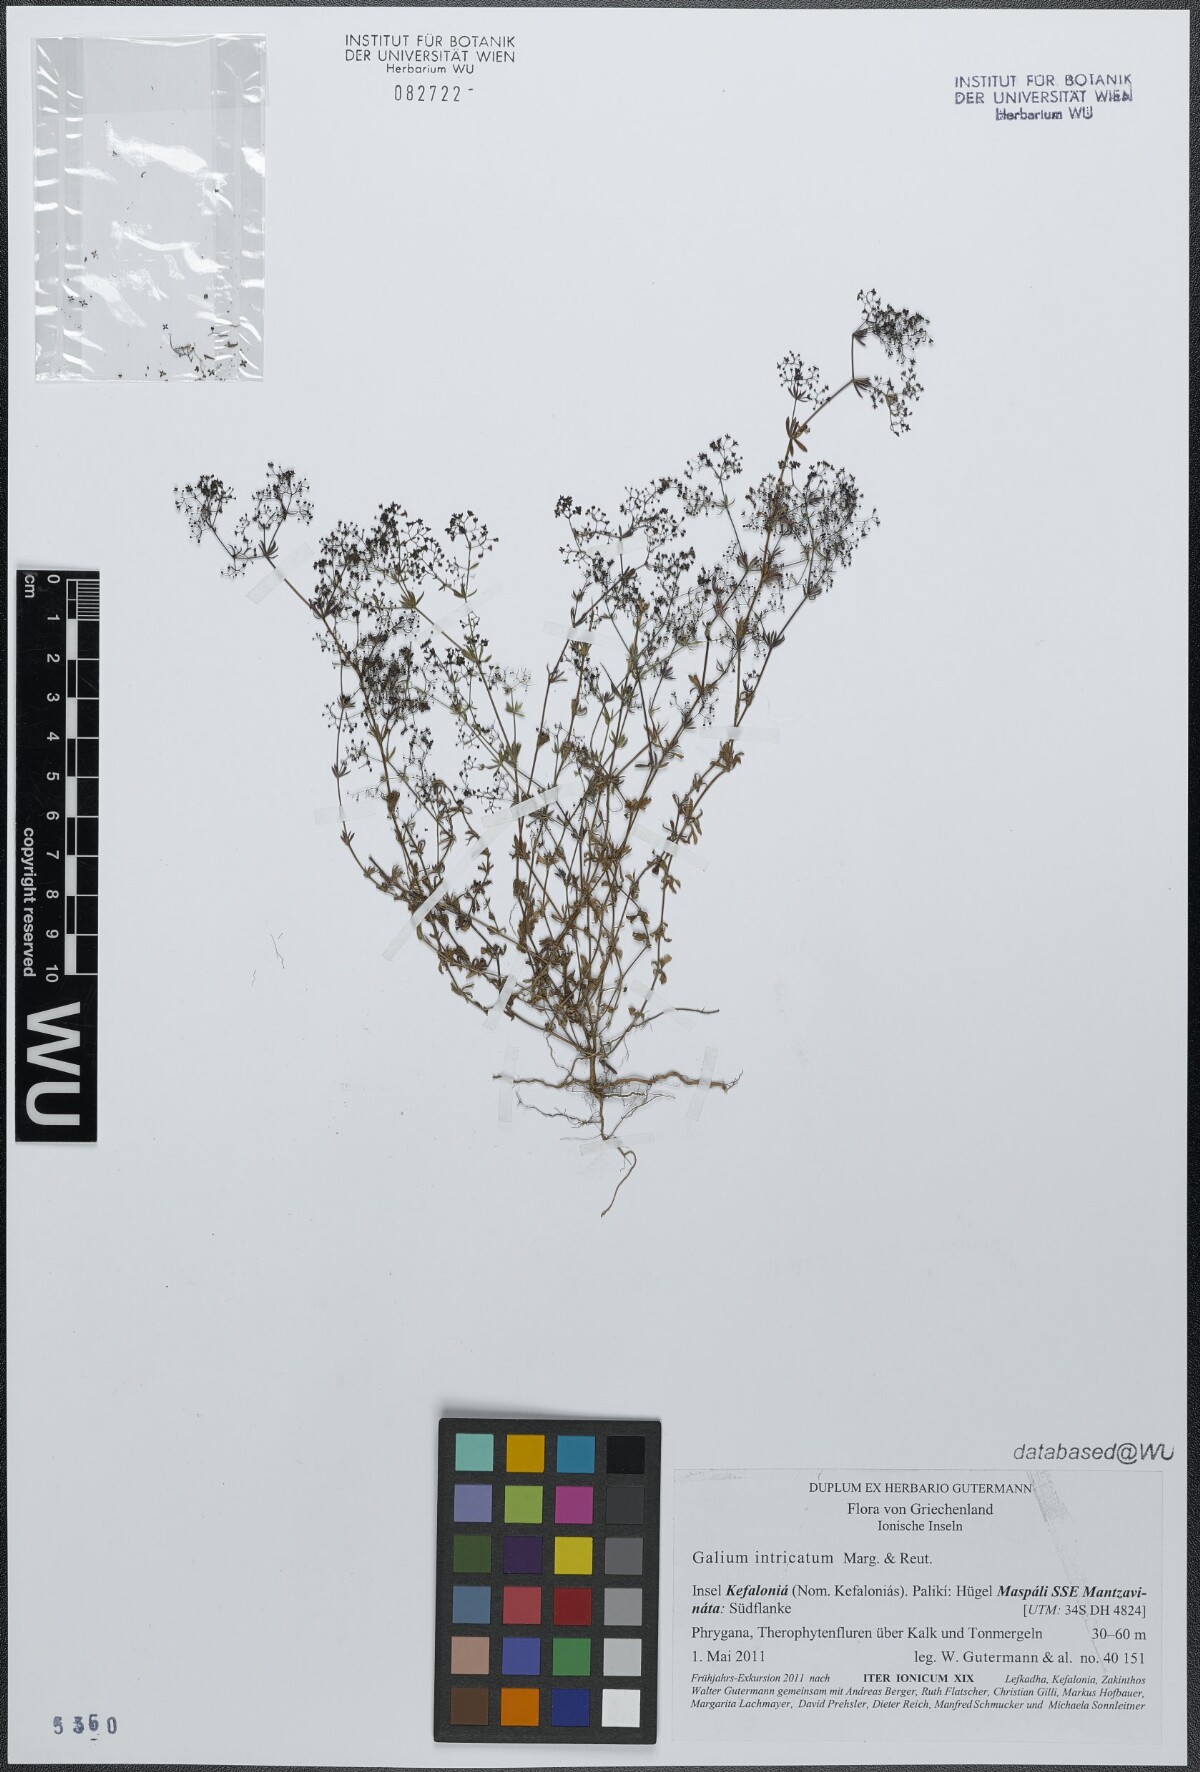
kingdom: Plantae
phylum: Tracheophyta
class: Magnoliopsida
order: Gentianales
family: Rubiaceae
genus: Galium
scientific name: Galium intricatum
